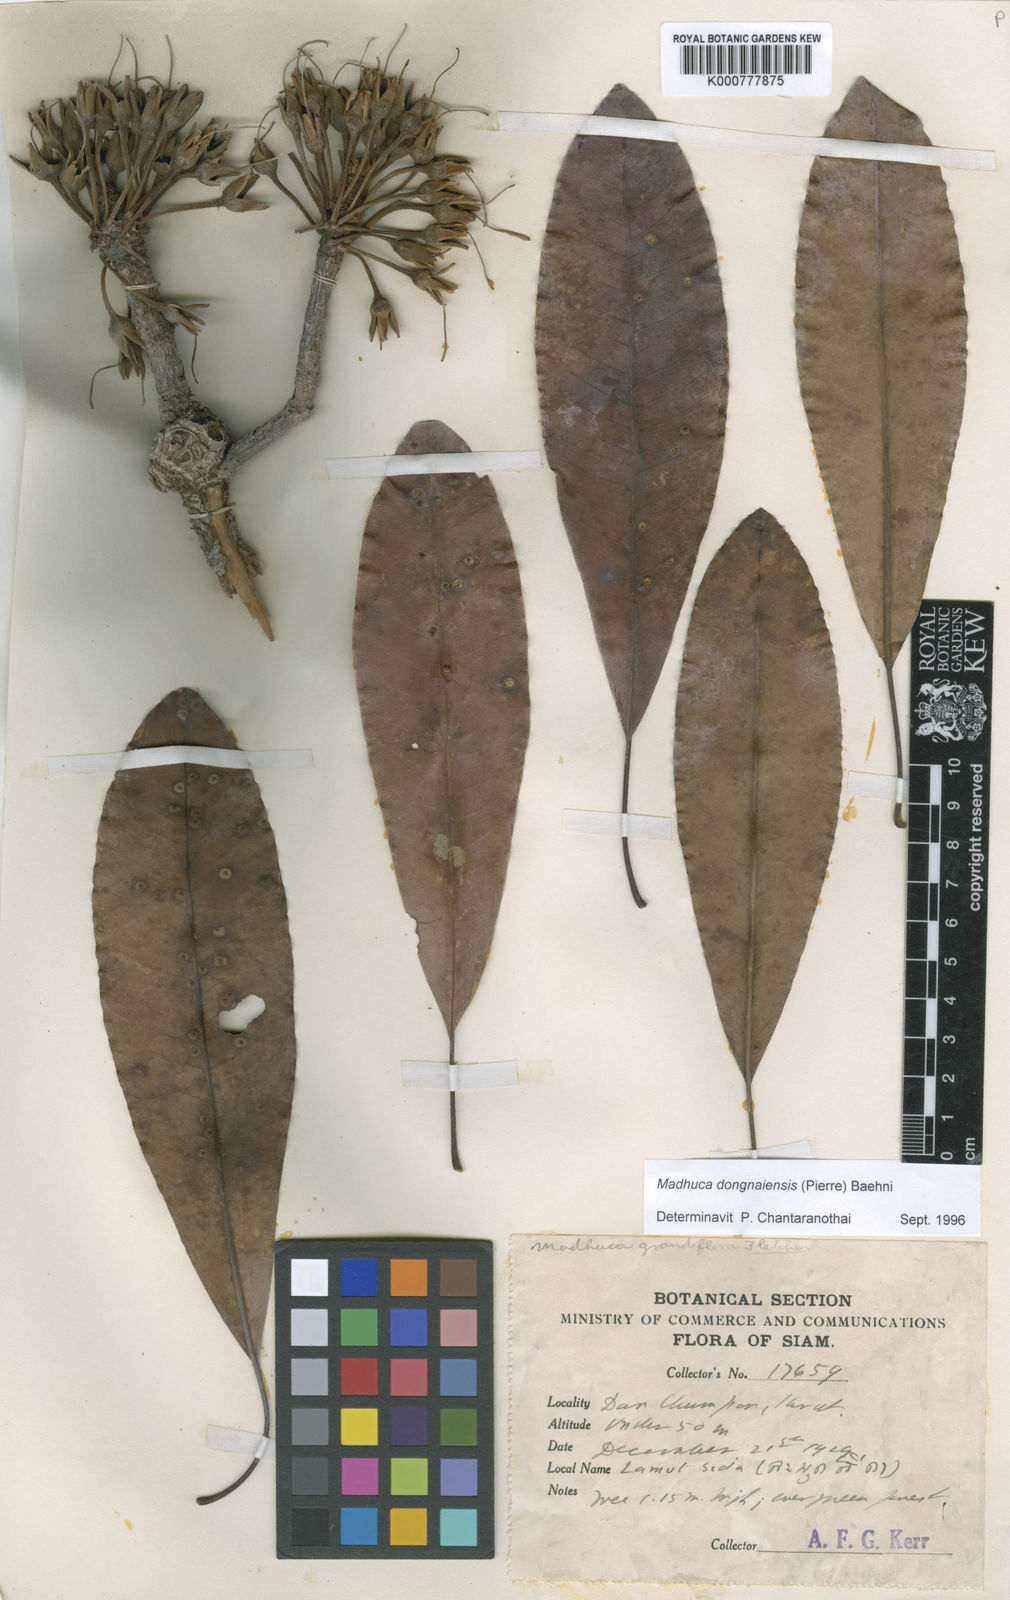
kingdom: Plantae
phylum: Tracheophyta
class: Magnoliopsida
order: Ericales
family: Sapotaceae
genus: Madhuca
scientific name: Madhuca dongnaiensis
